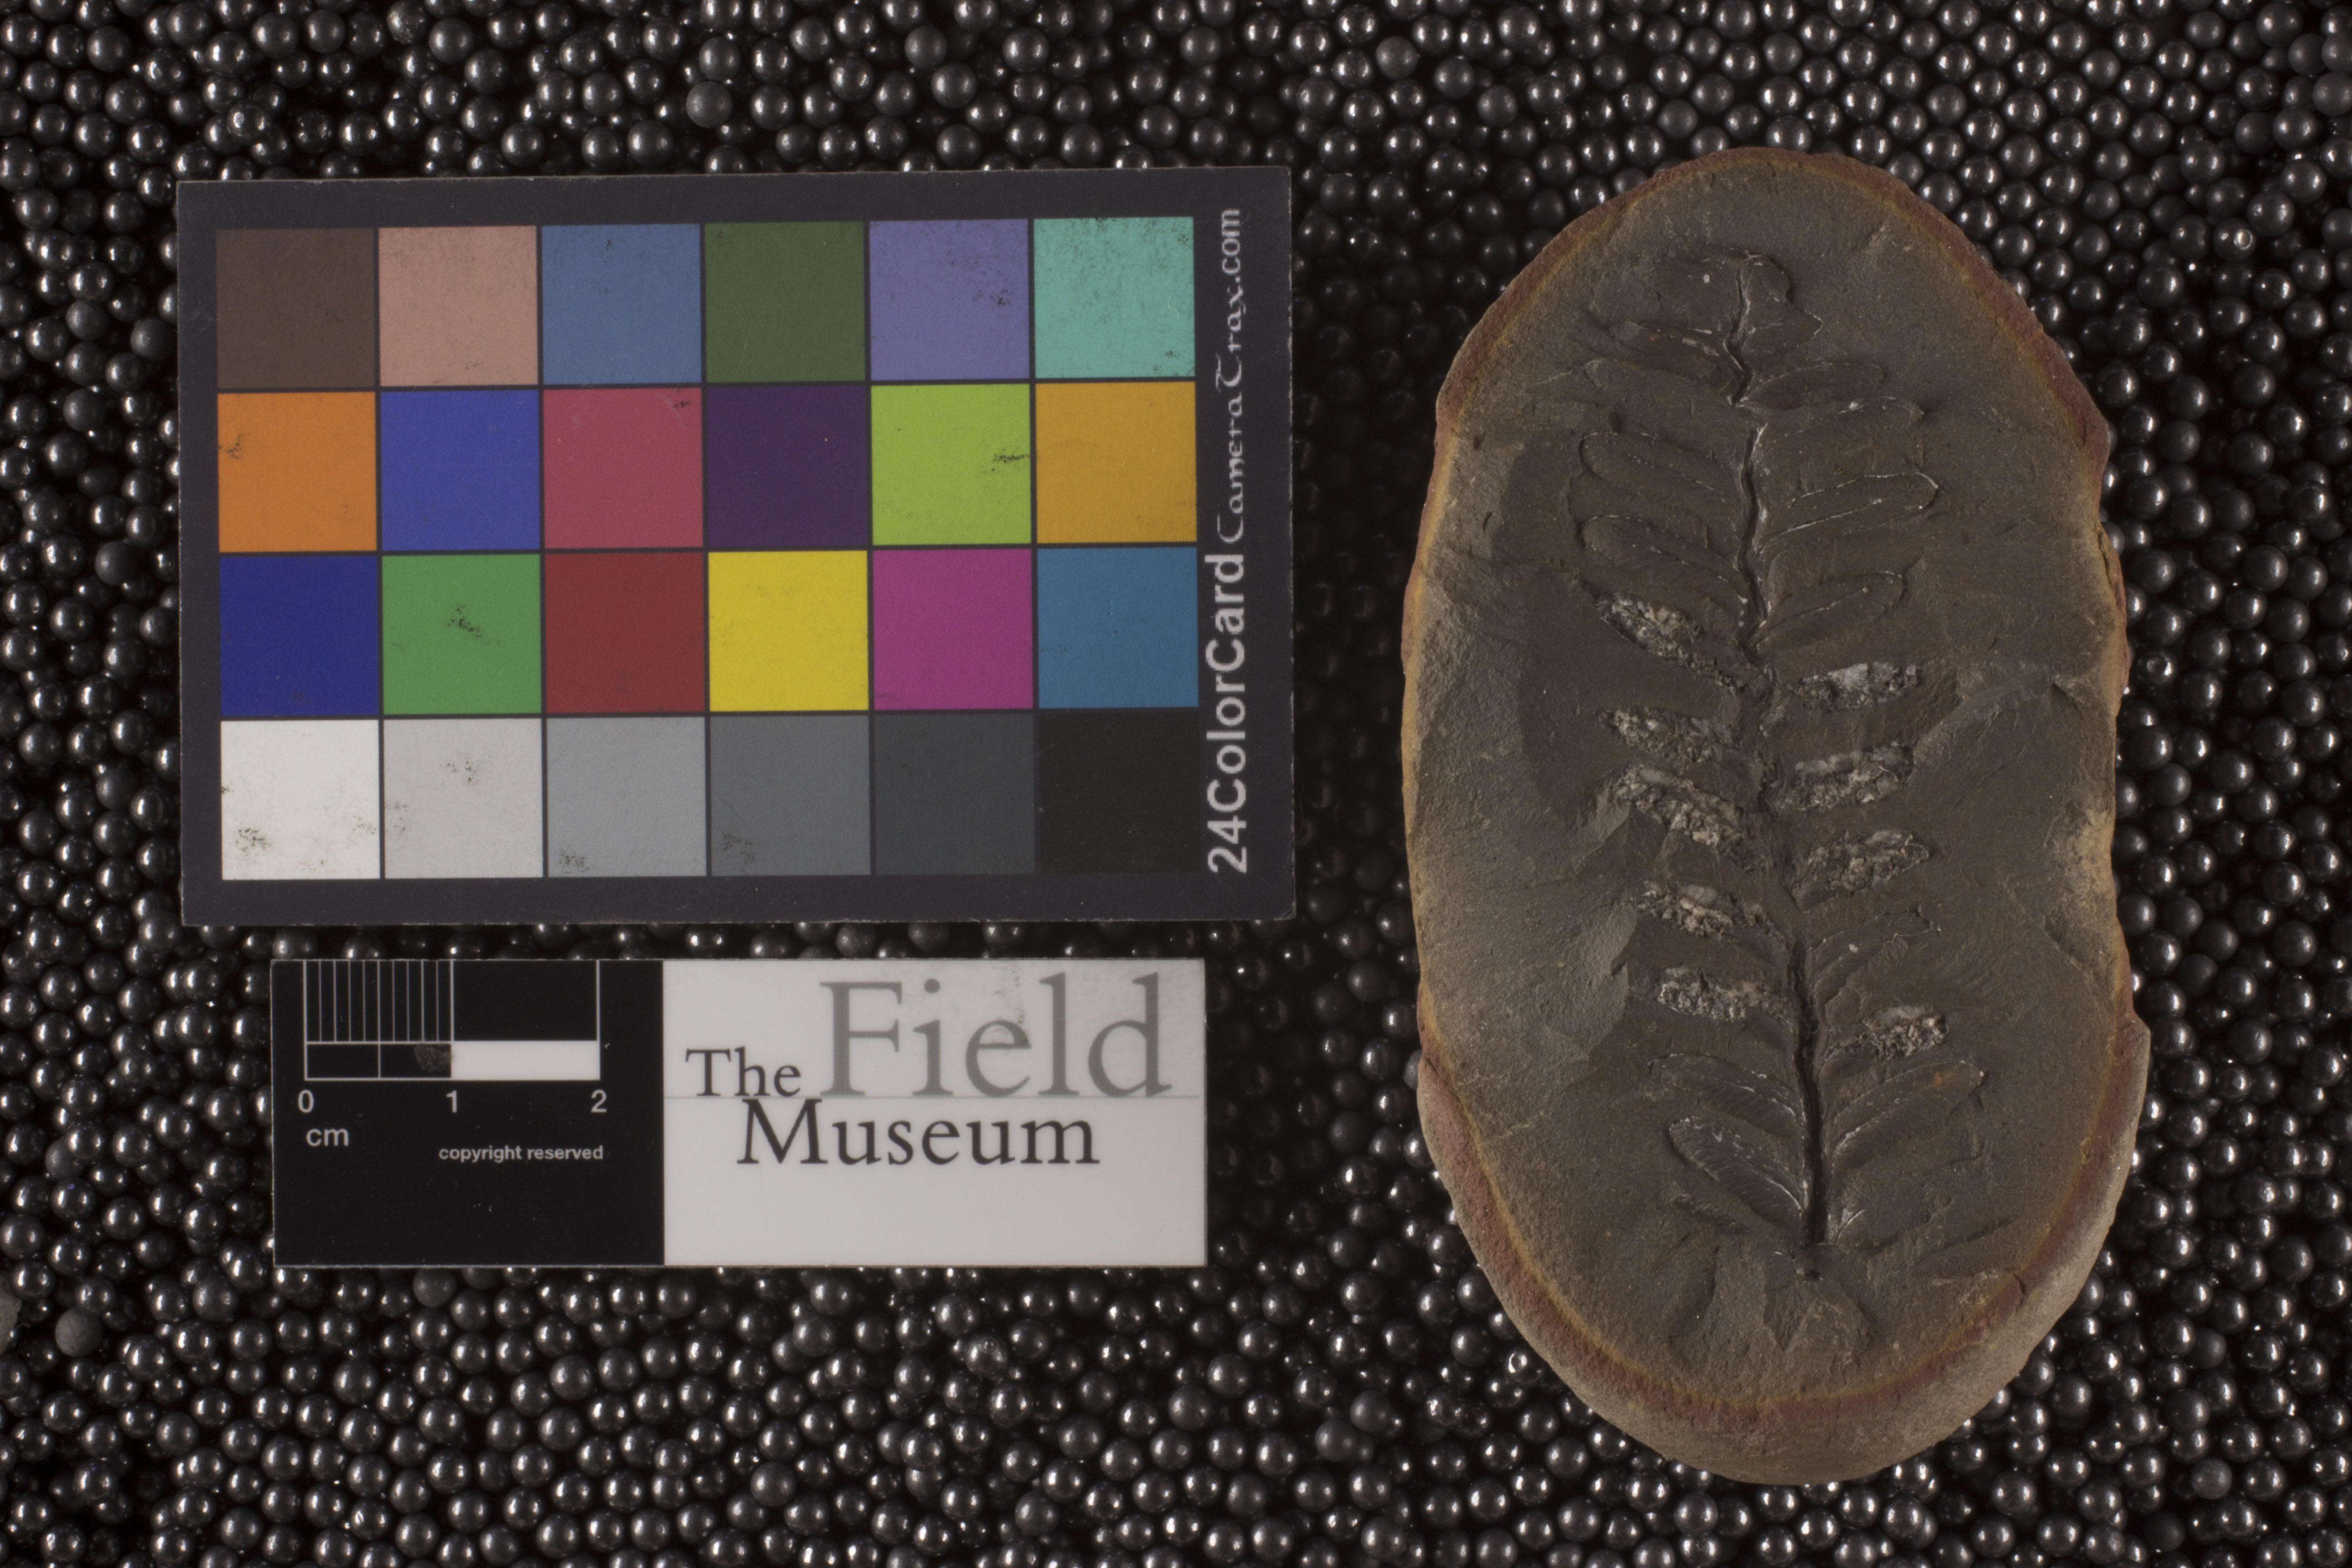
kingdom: Plantae
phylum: Tracheophyta
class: Polypodiopsida
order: Marattiales
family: Asterothecaceae
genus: Pecopteris
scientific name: Pecopteris
